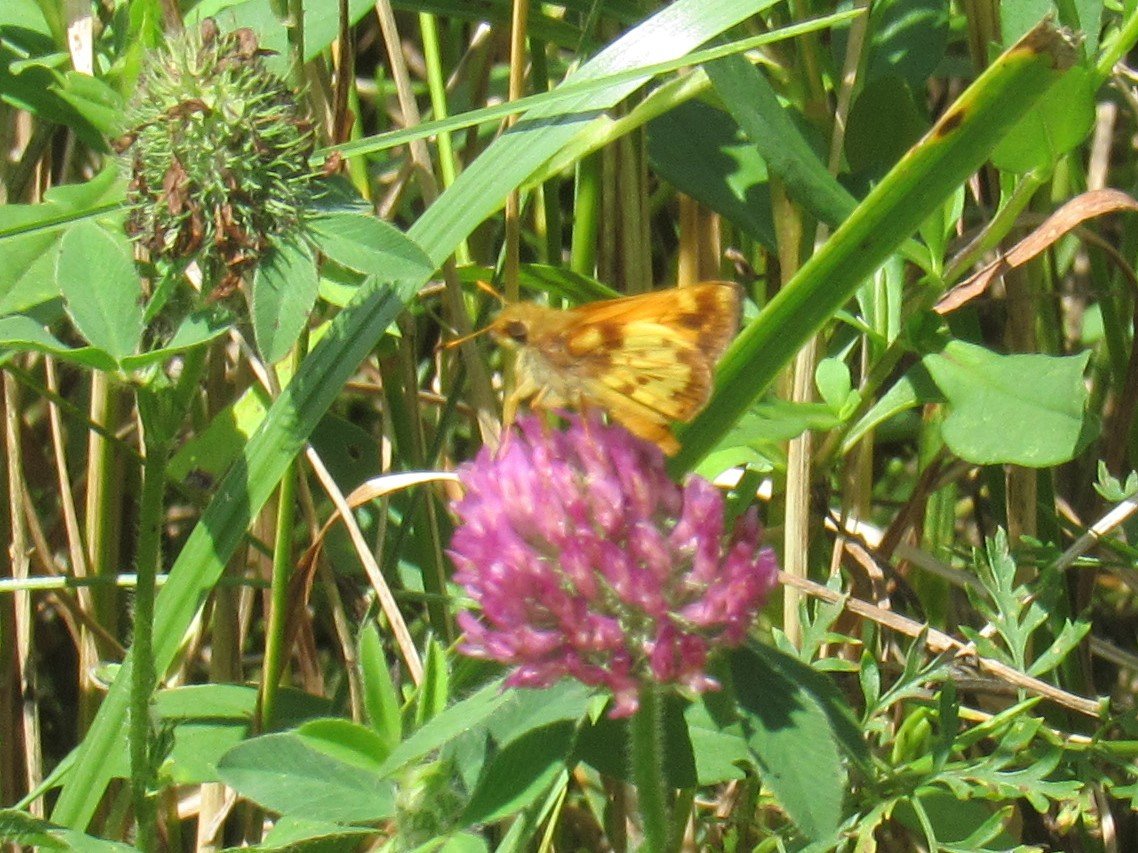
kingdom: Animalia
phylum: Arthropoda
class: Insecta
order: Lepidoptera
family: Hesperiidae
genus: Lon
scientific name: Lon zabulon
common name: Zabulon Skipper
